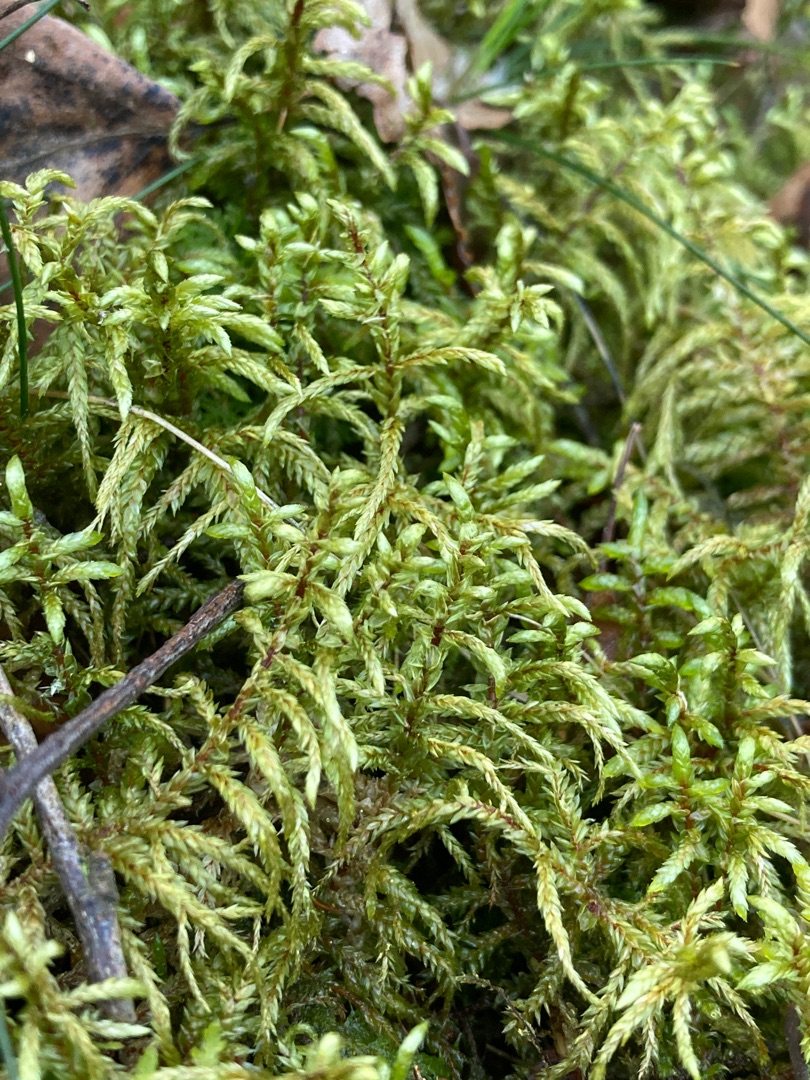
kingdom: Plantae
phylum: Bryophyta
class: Bryopsida
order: Hypnales
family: Hylocomiaceae
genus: Pleurozium
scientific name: Pleurozium schreberi
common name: Trind fyrremos
